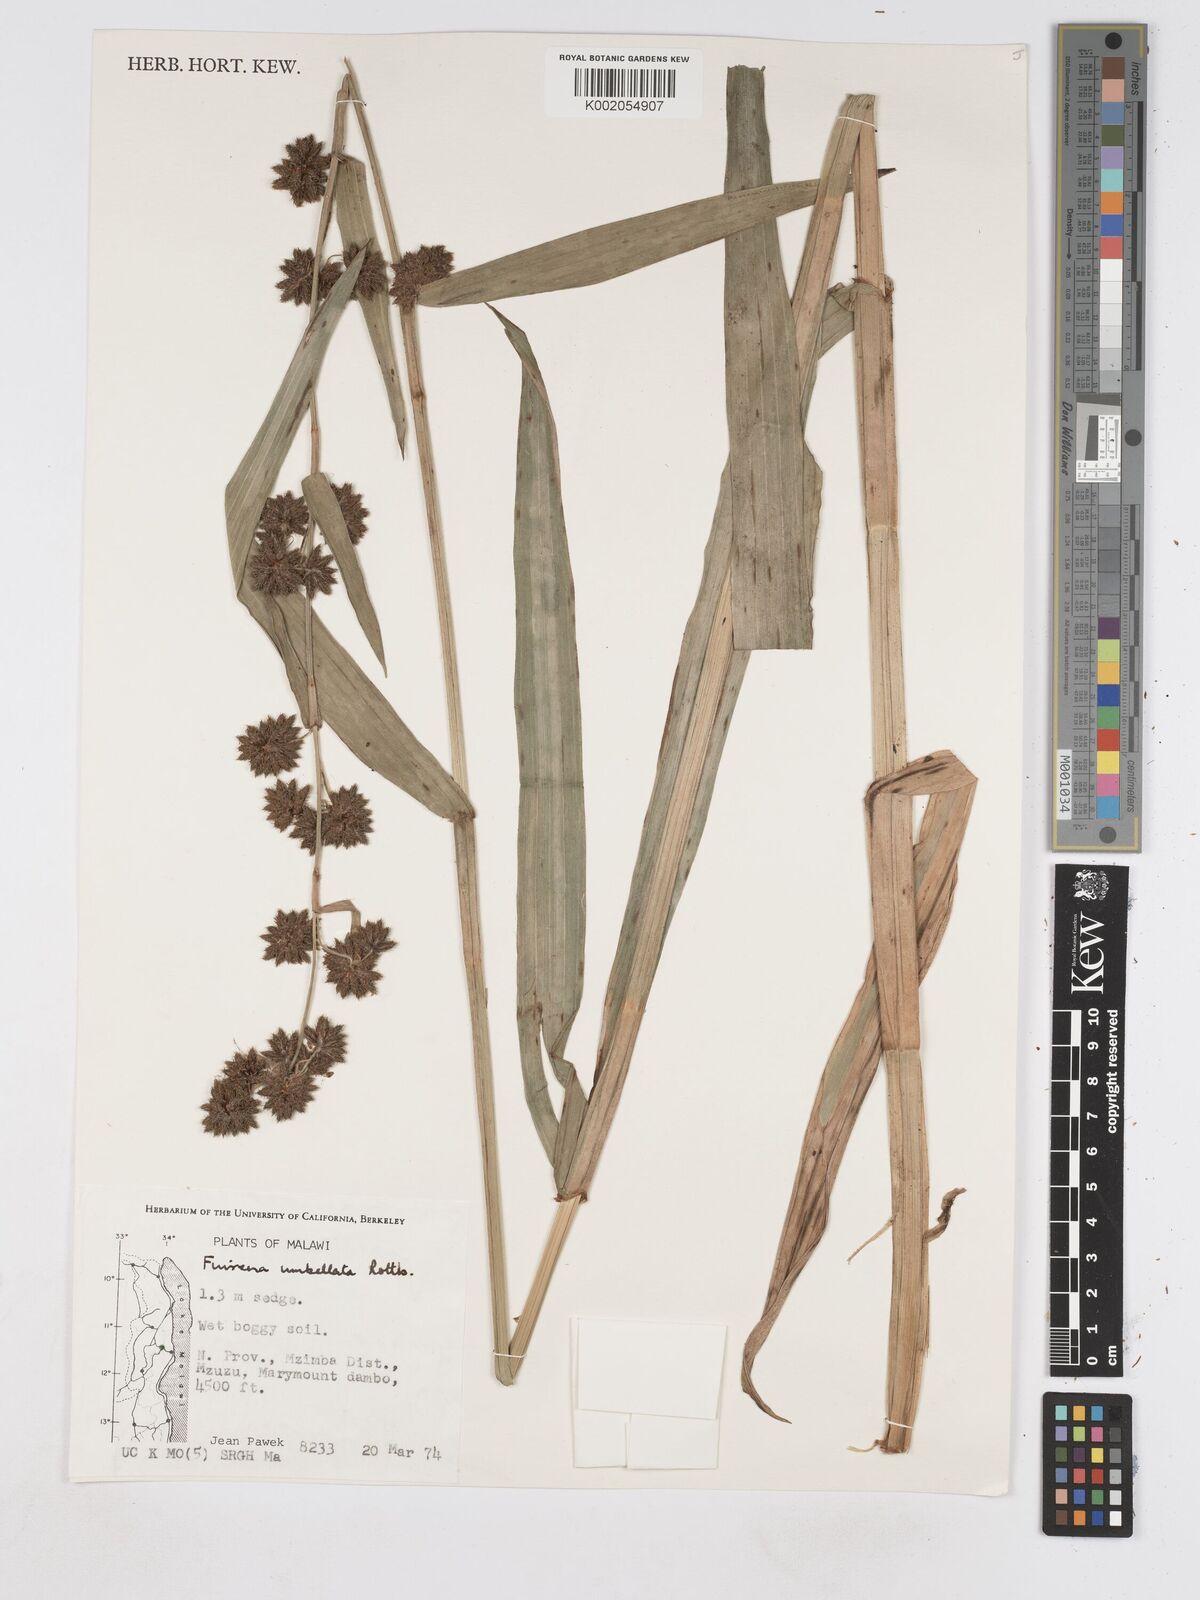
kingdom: Plantae
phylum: Tracheophyta
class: Liliopsida
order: Poales
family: Cyperaceae
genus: Fuirena
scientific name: Fuirena umbellata
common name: Yefen
